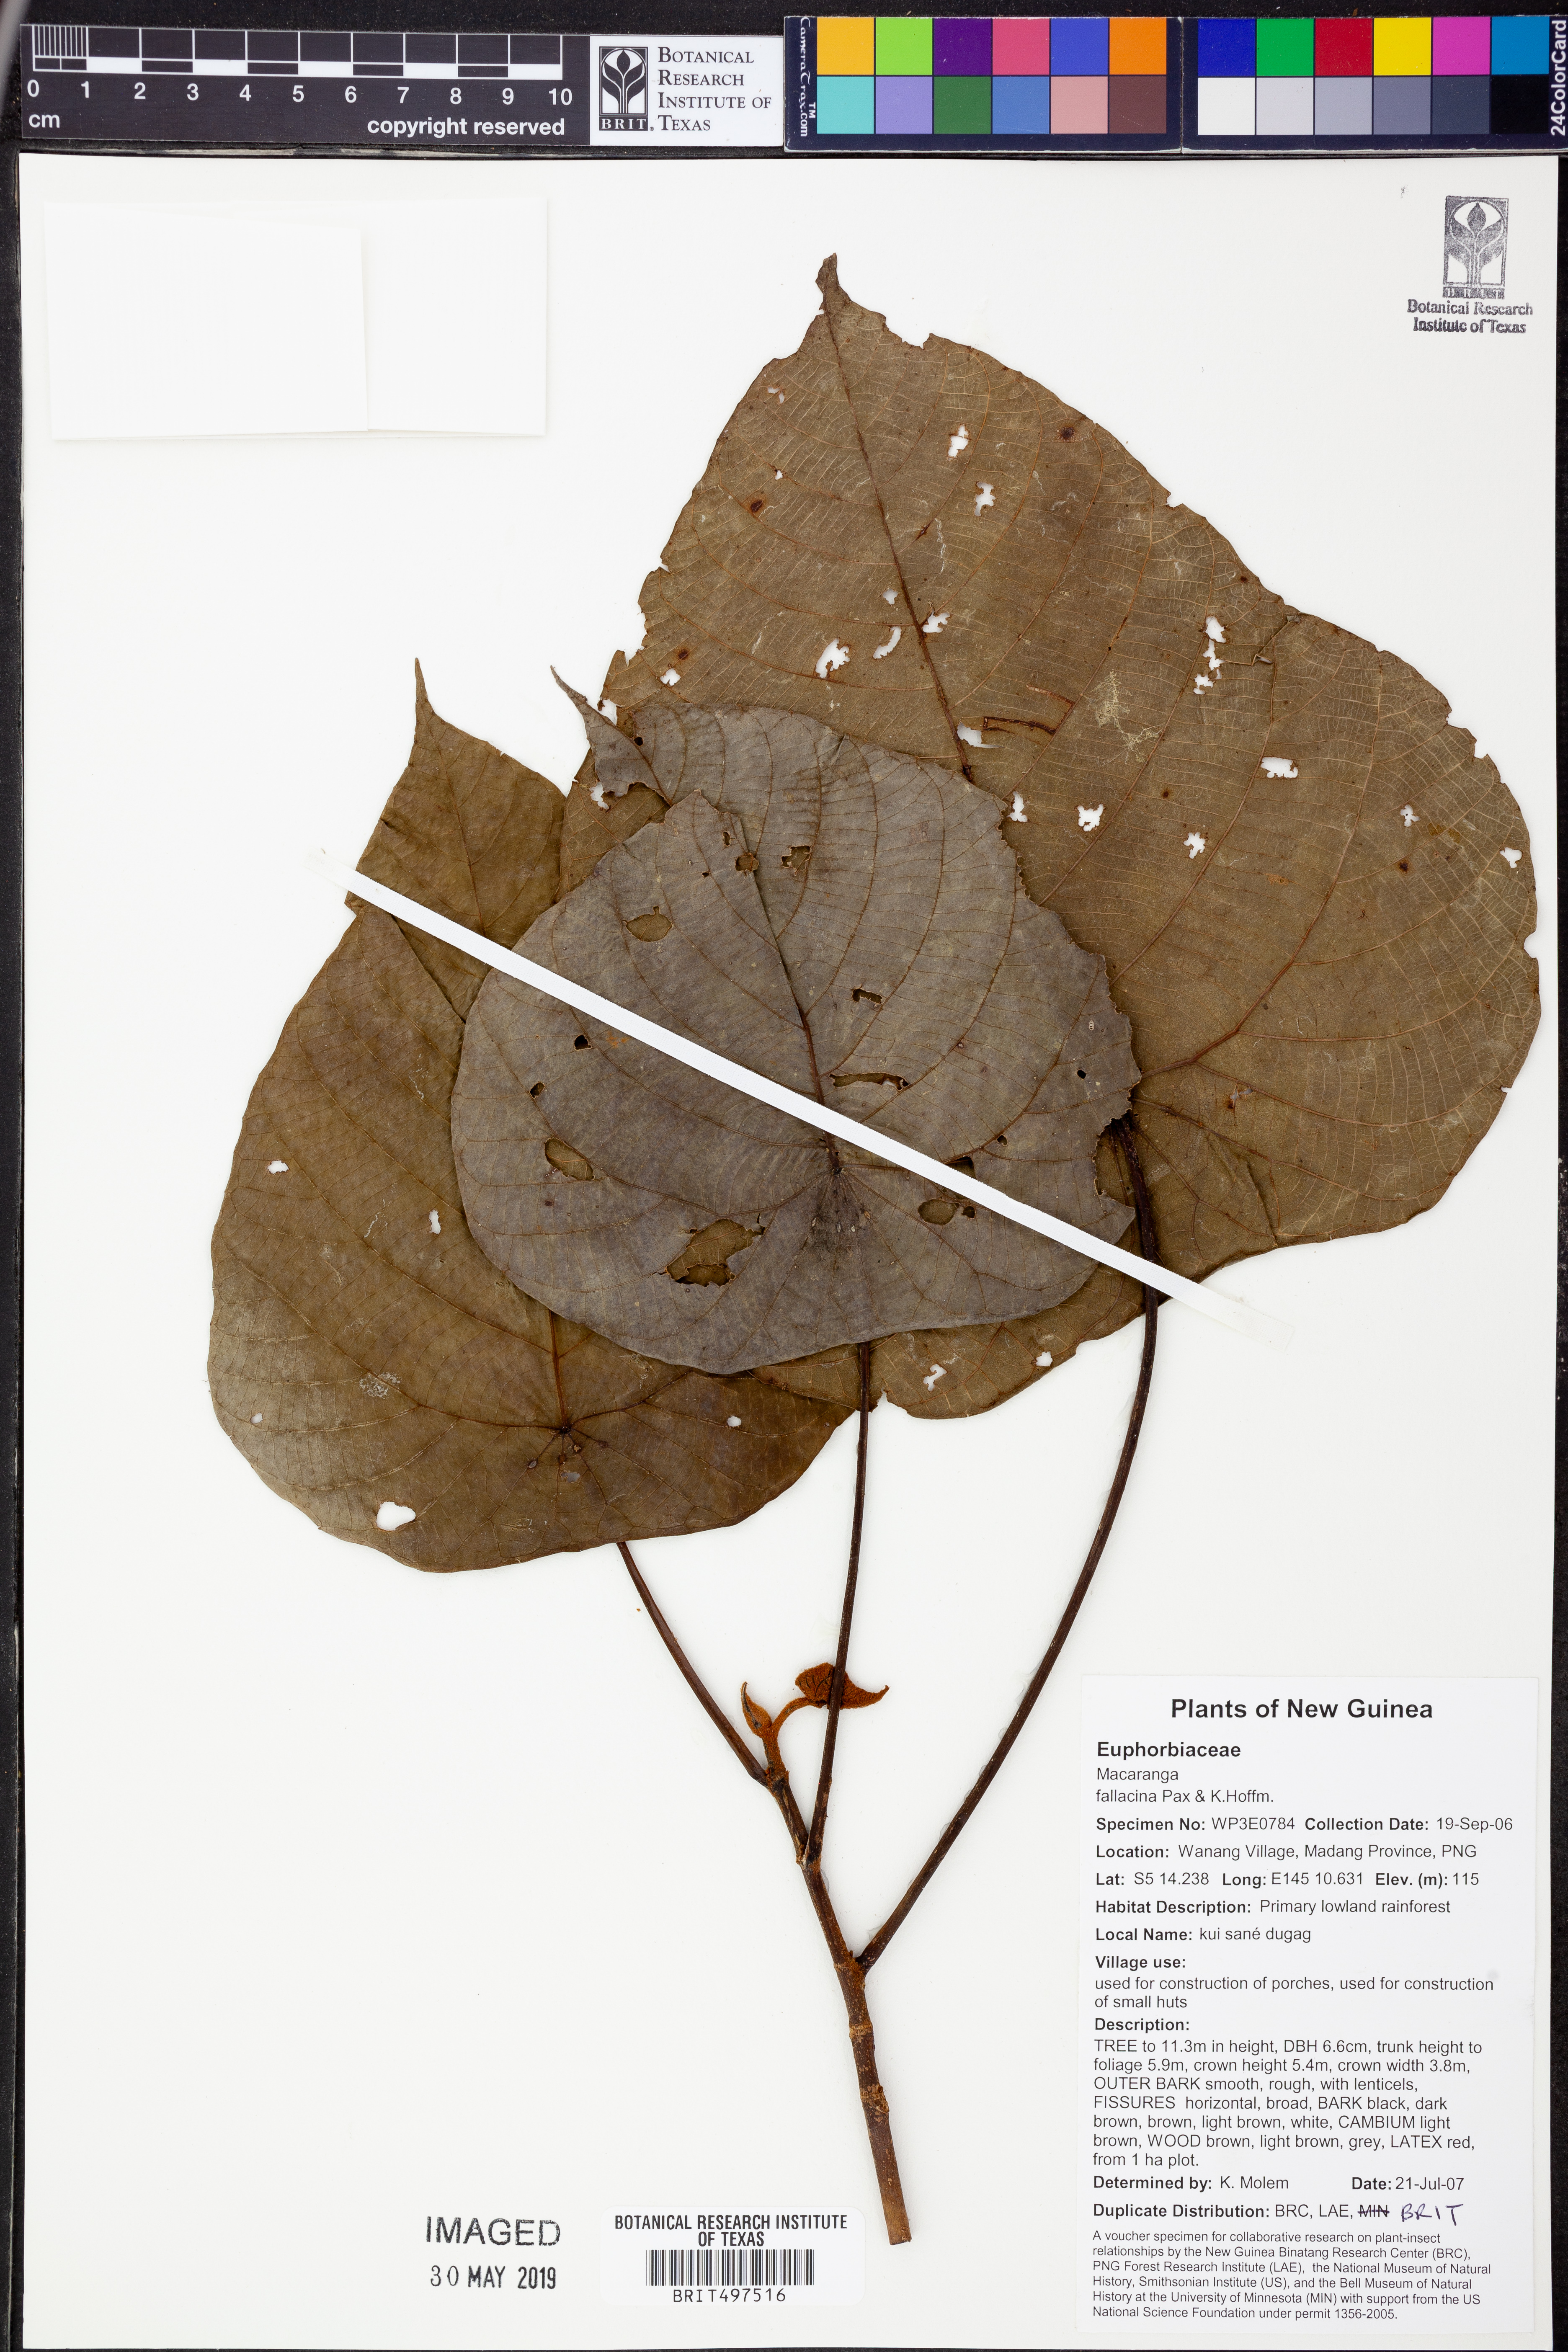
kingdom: Plantae
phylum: Tracheophyta
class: Magnoliopsida
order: Malpighiales
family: Euphorbiaceae
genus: Macaranga
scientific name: Macaranga fallacina
